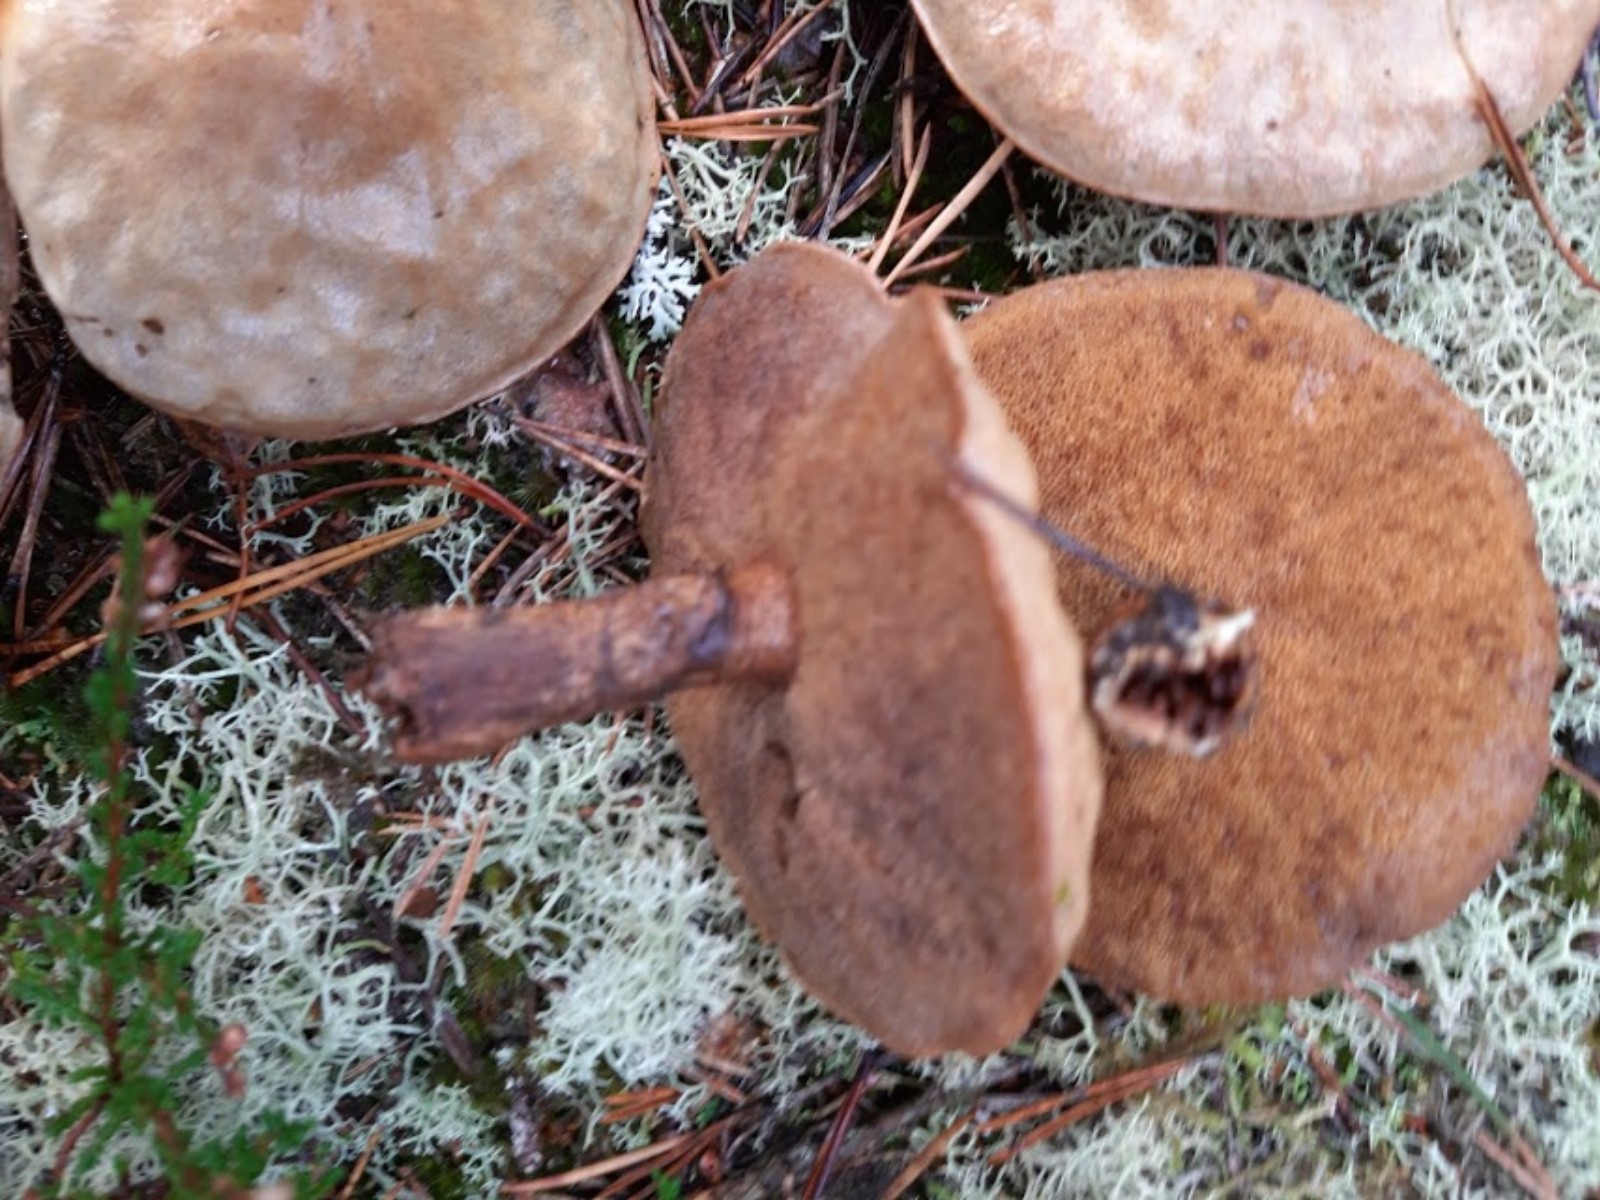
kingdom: Fungi
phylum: Basidiomycota
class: Agaricomycetes
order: Boletales
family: Suillaceae
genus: Suillus
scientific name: Suillus luteus
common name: brungul slimrørhat
